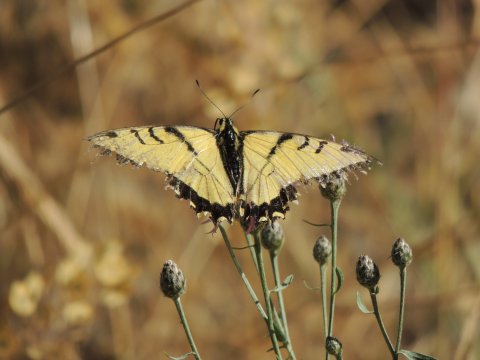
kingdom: Animalia
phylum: Arthropoda
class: Insecta
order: Lepidoptera
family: Papilionidae
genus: Papilio
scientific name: Papilio multicaudata
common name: Two-tailed Swallowtail
